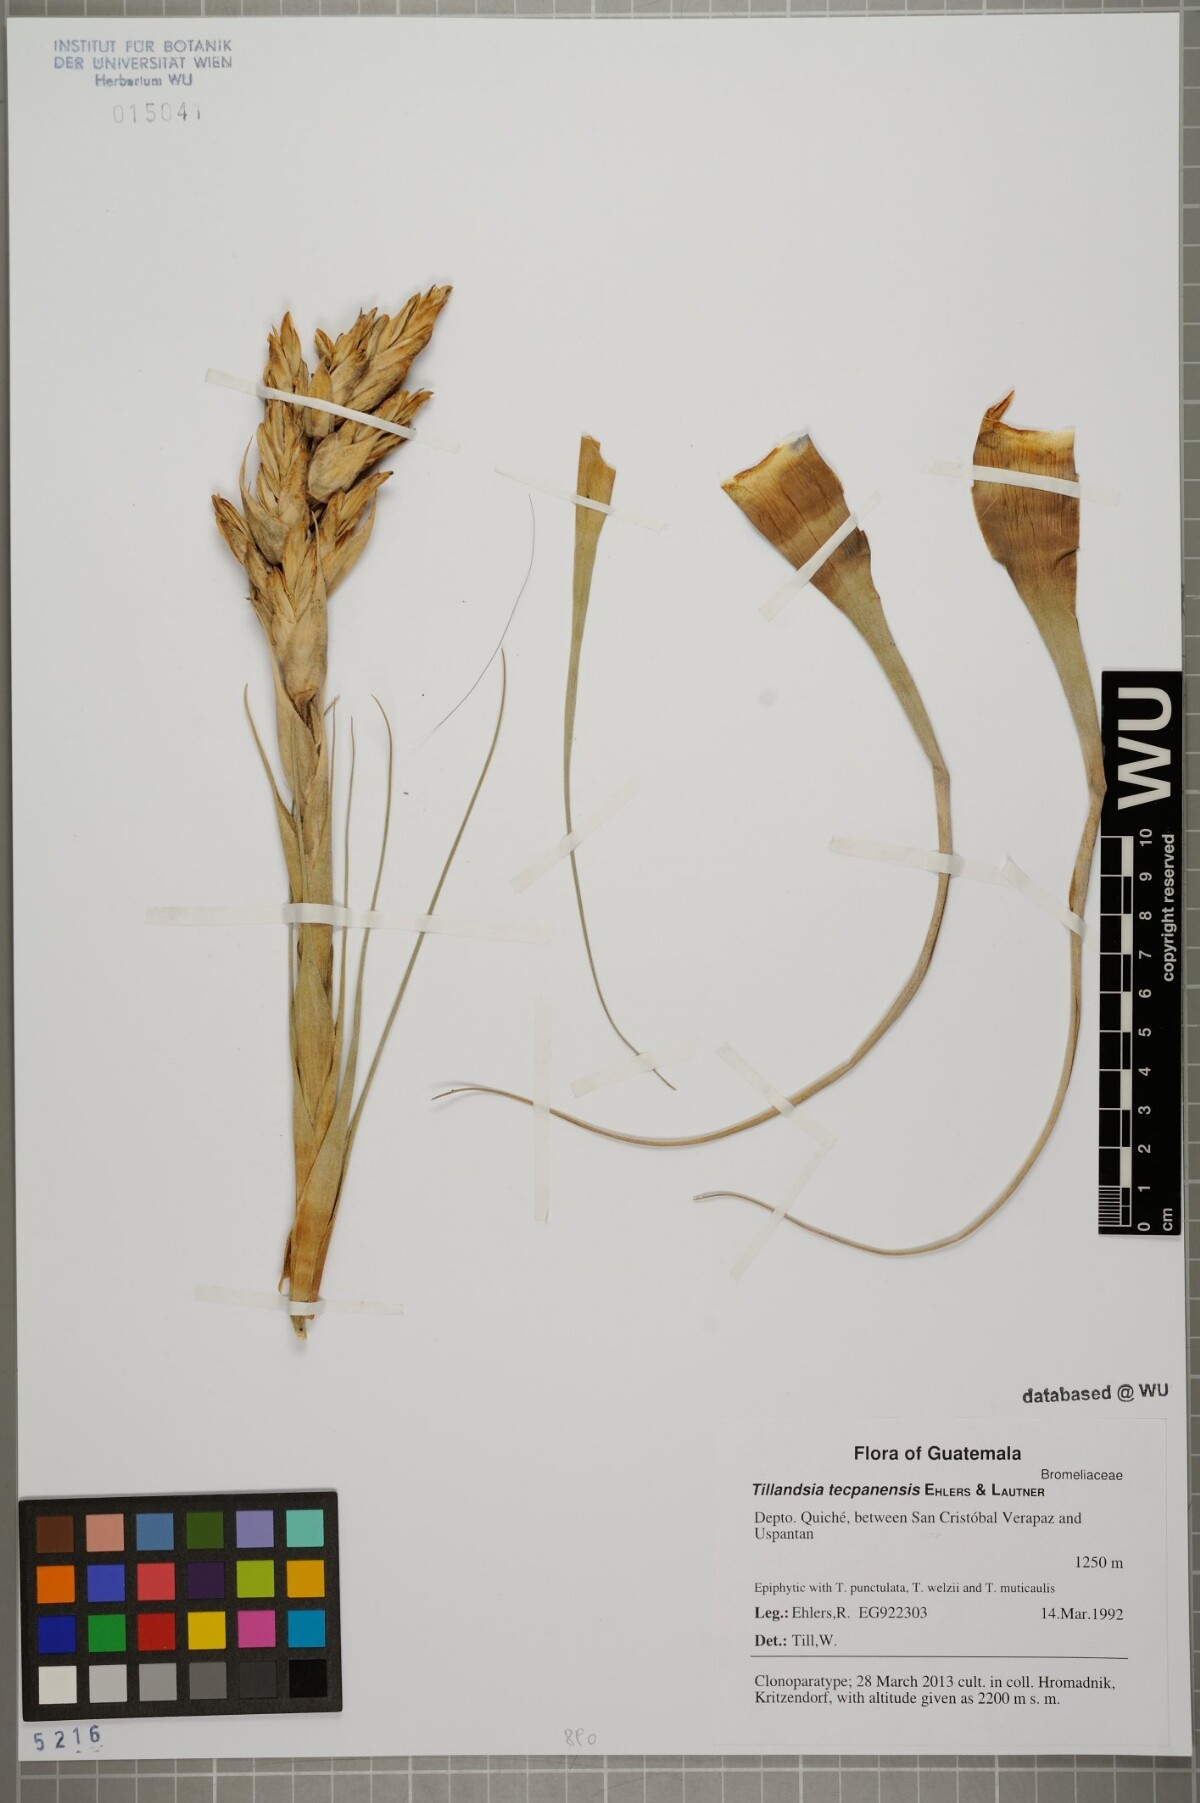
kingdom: Plantae
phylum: Tracheophyta
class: Liliopsida
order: Poales
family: Bromeliaceae
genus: Tillandsia
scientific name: Tillandsia tecpanensis
